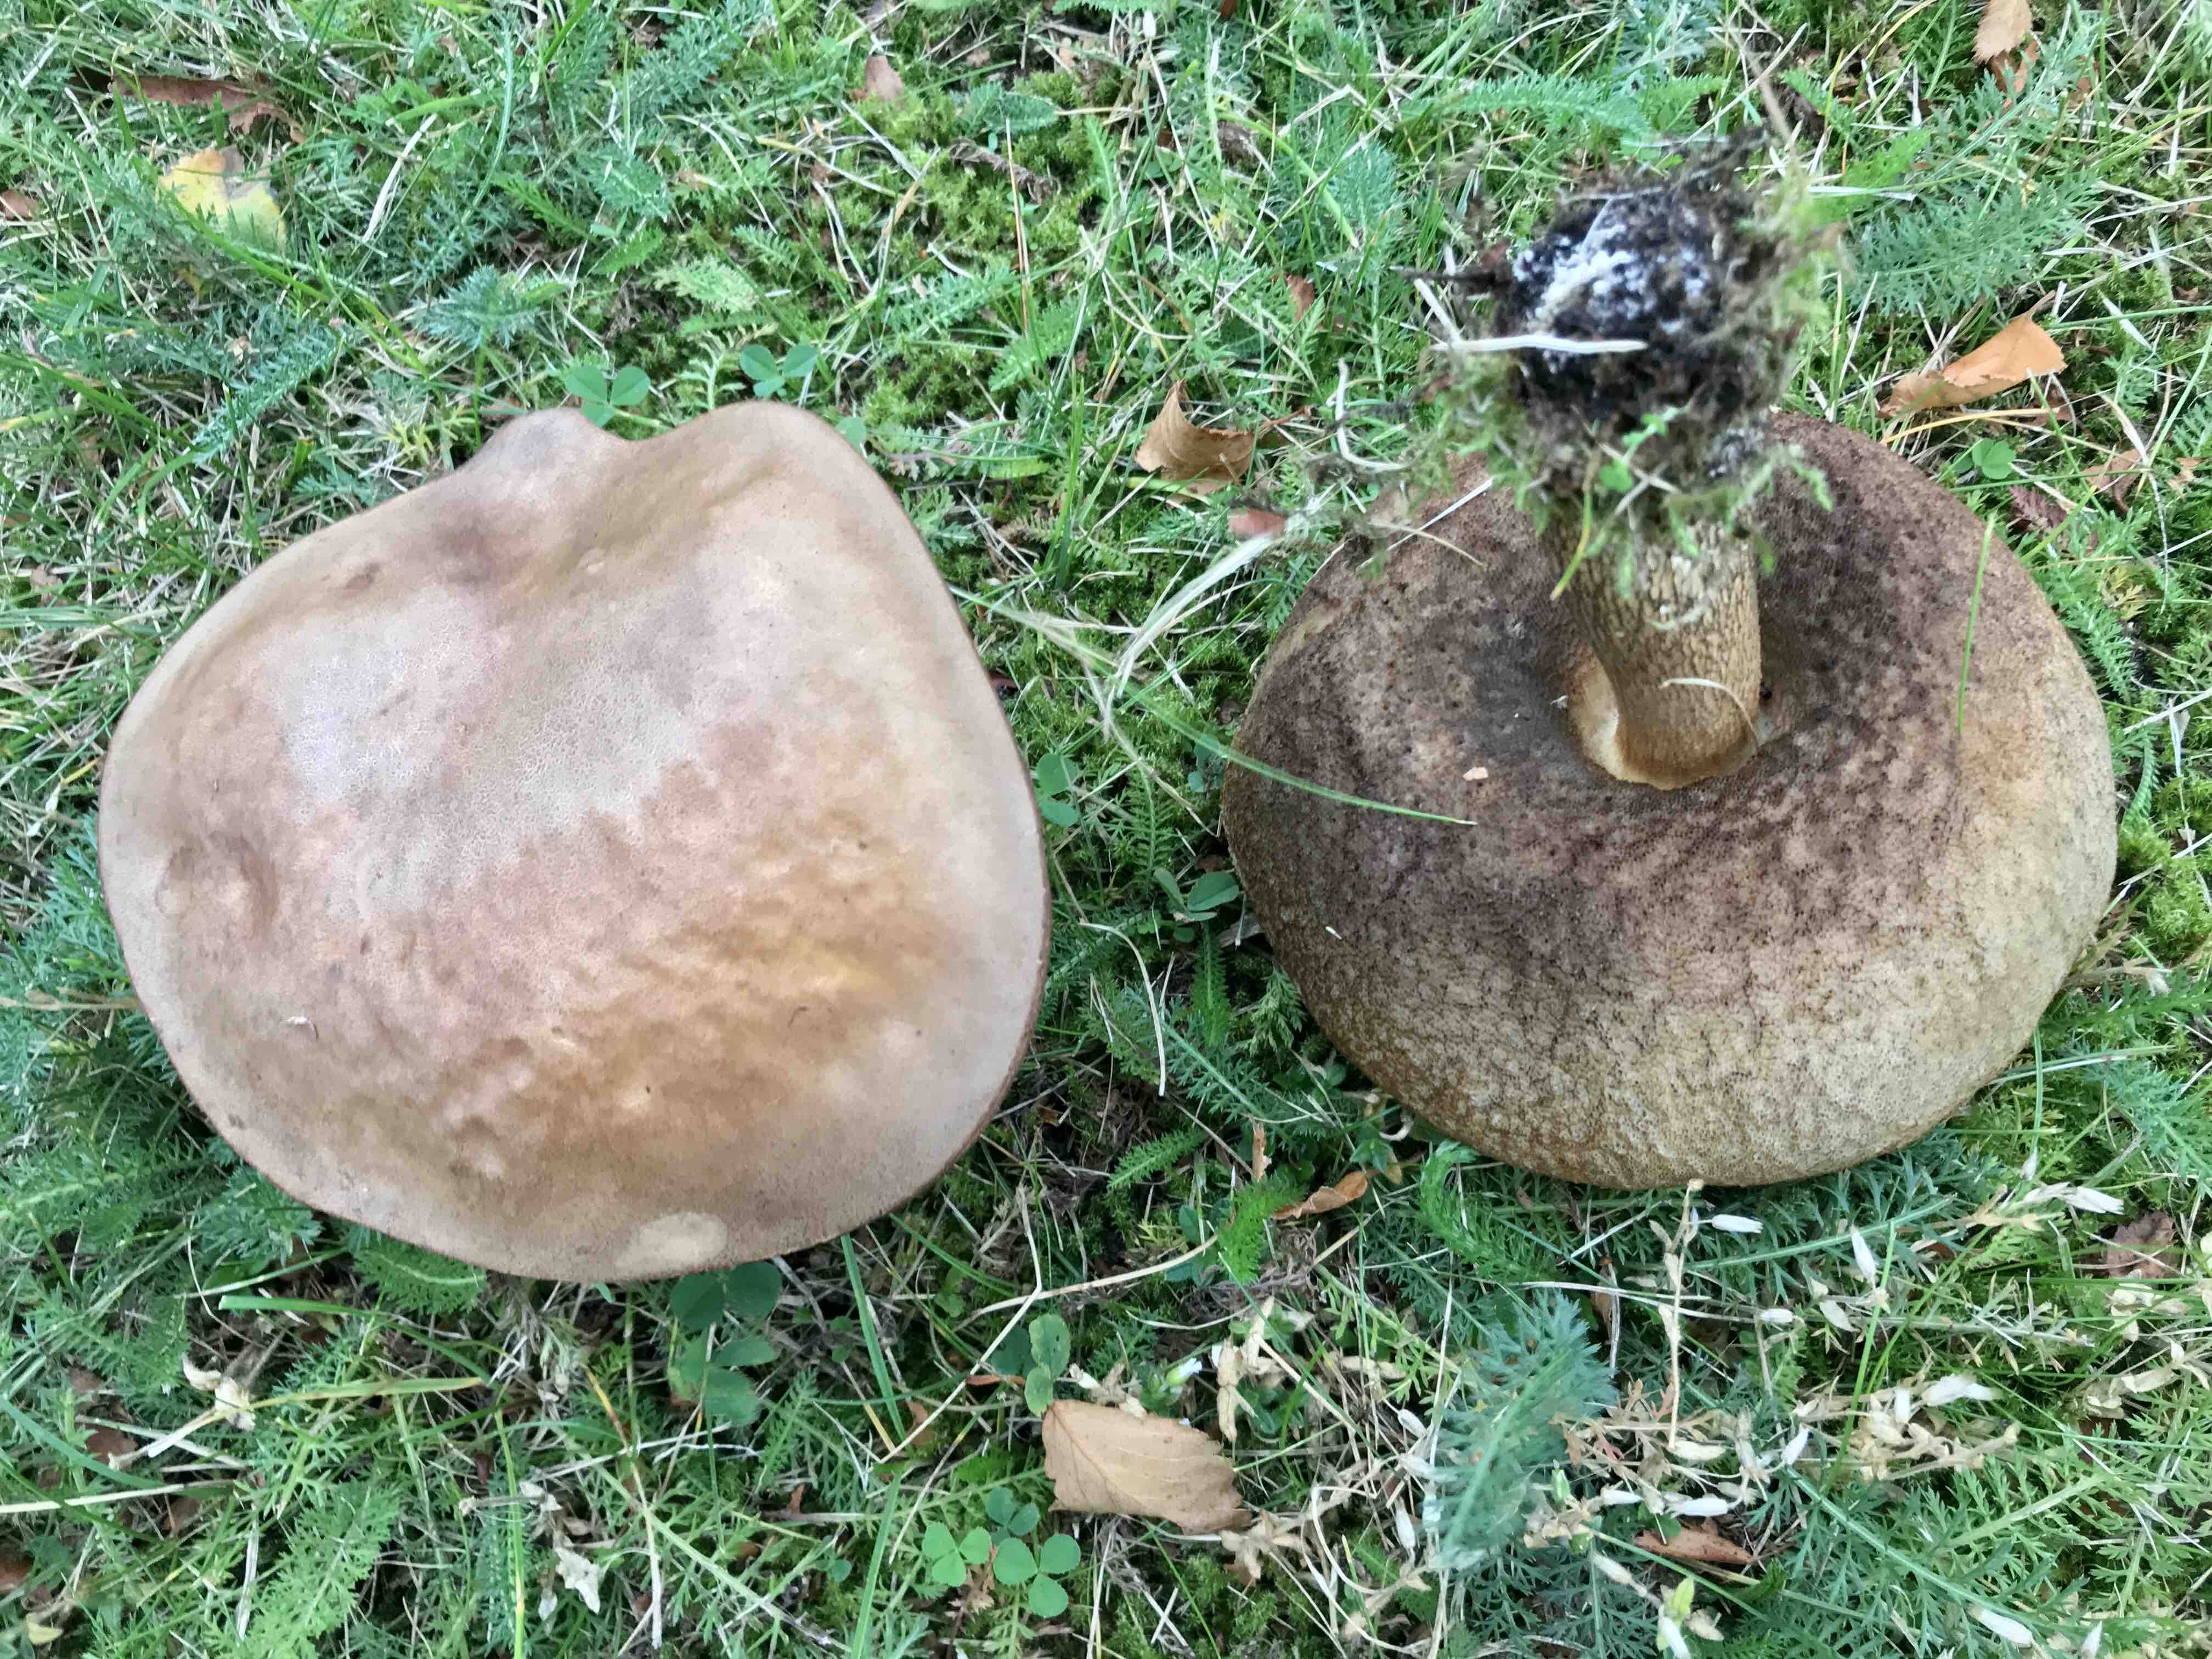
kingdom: Fungi
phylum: Basidiomycota
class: Agaricomycetes
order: Boletales
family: Boletaceae
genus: Leccinum
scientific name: Leccinum scabrum
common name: brun skælrørhat
